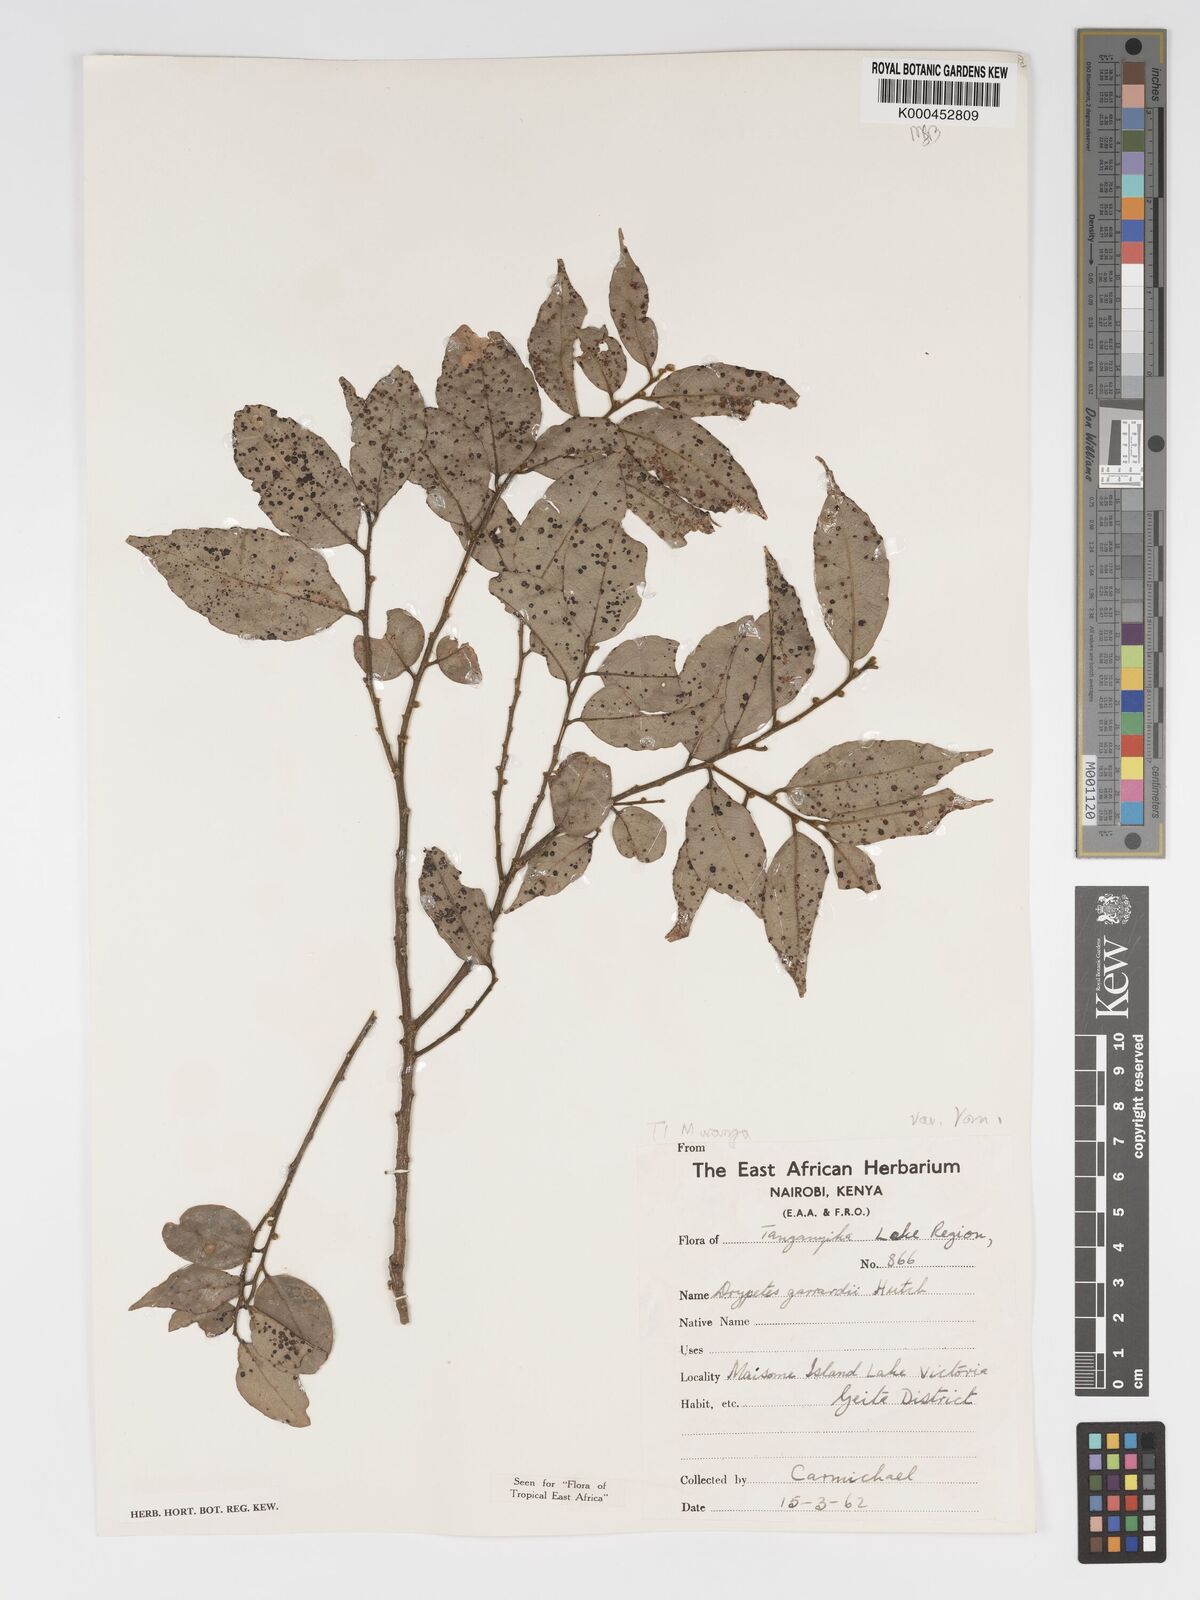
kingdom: Plantae
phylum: Tracheophyta
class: Magnoliopsida
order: Malpighiales
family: Putranjivaceae
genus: Drypetes
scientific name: Drypetes gerrardii
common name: Forest ironplum
